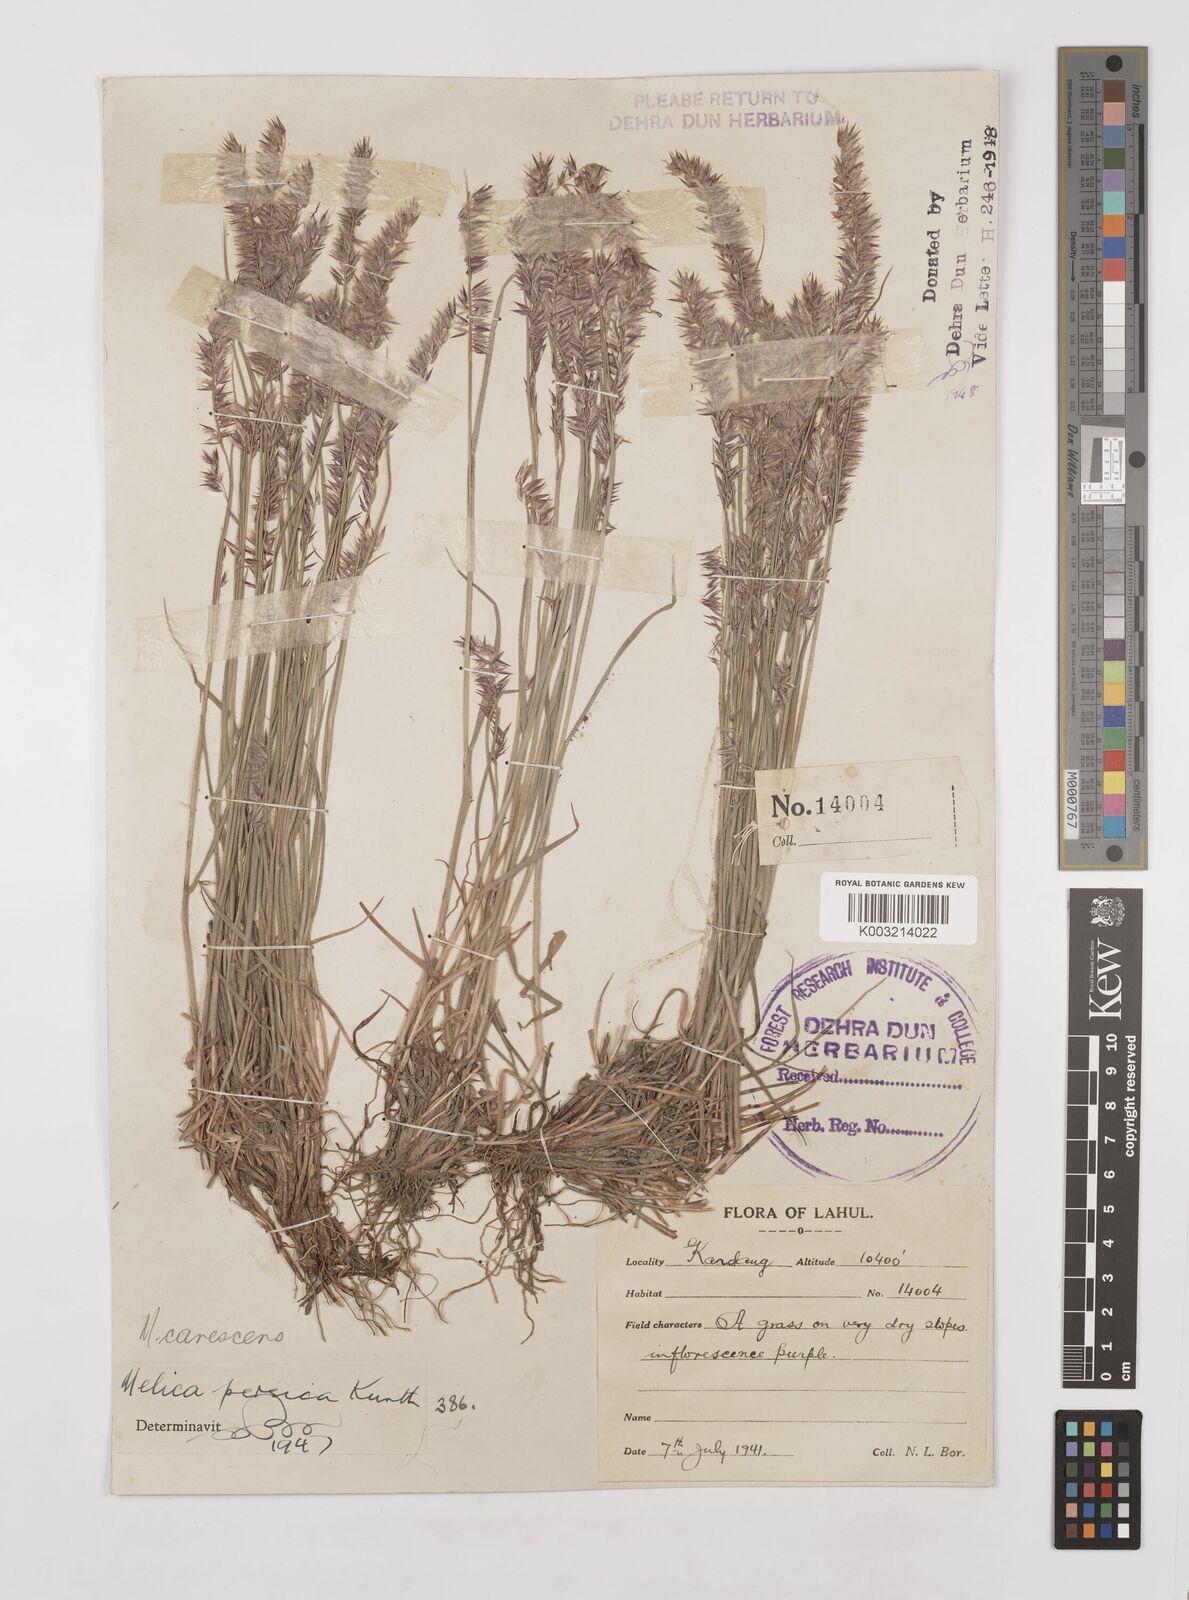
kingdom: Plantae
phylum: Tracheophyta
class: Liliopsida
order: Poales
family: Poaceae
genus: Melica
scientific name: Melica persica
